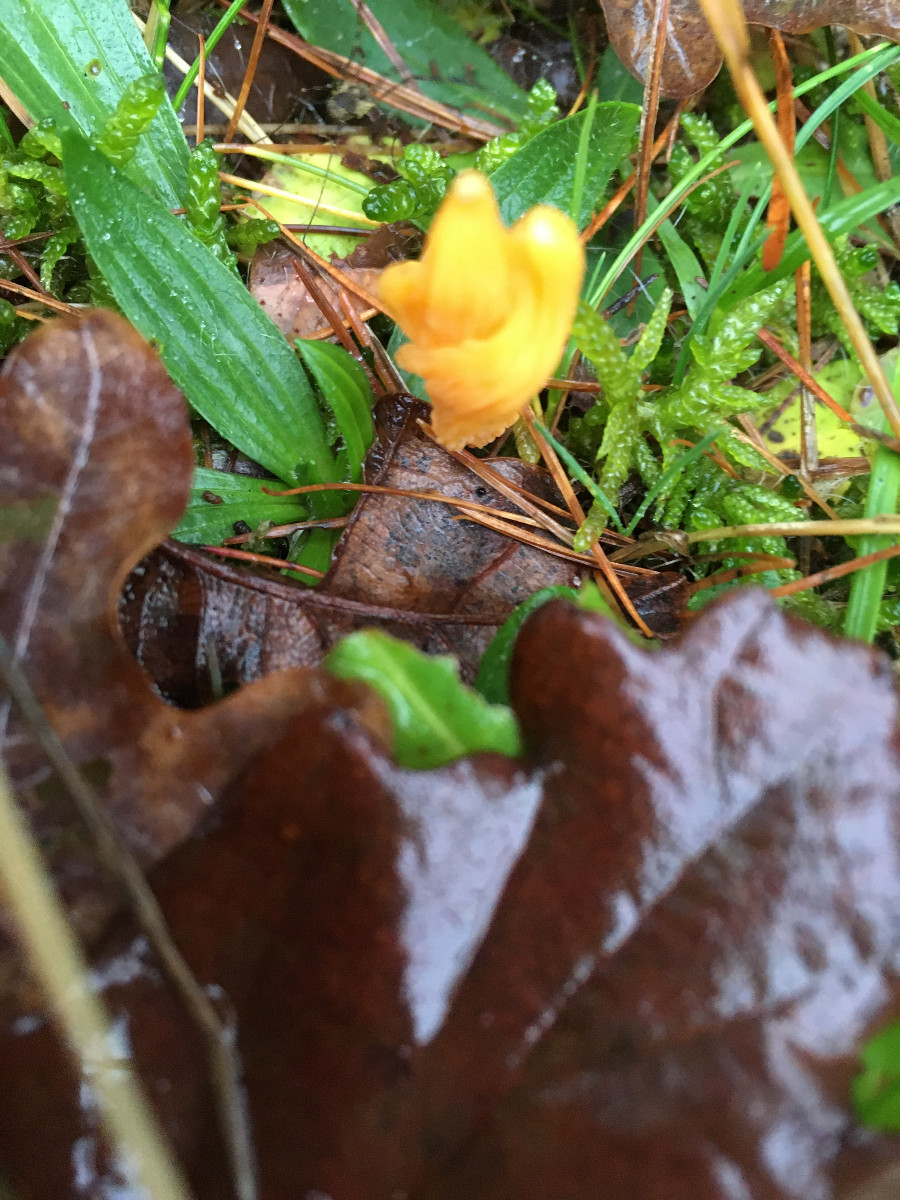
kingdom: Fungi
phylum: Basidiomycota
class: Agaricomycetes
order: Agaricales
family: Clavariaceae
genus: Clavulinopsis
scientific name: Clavulinopsis
